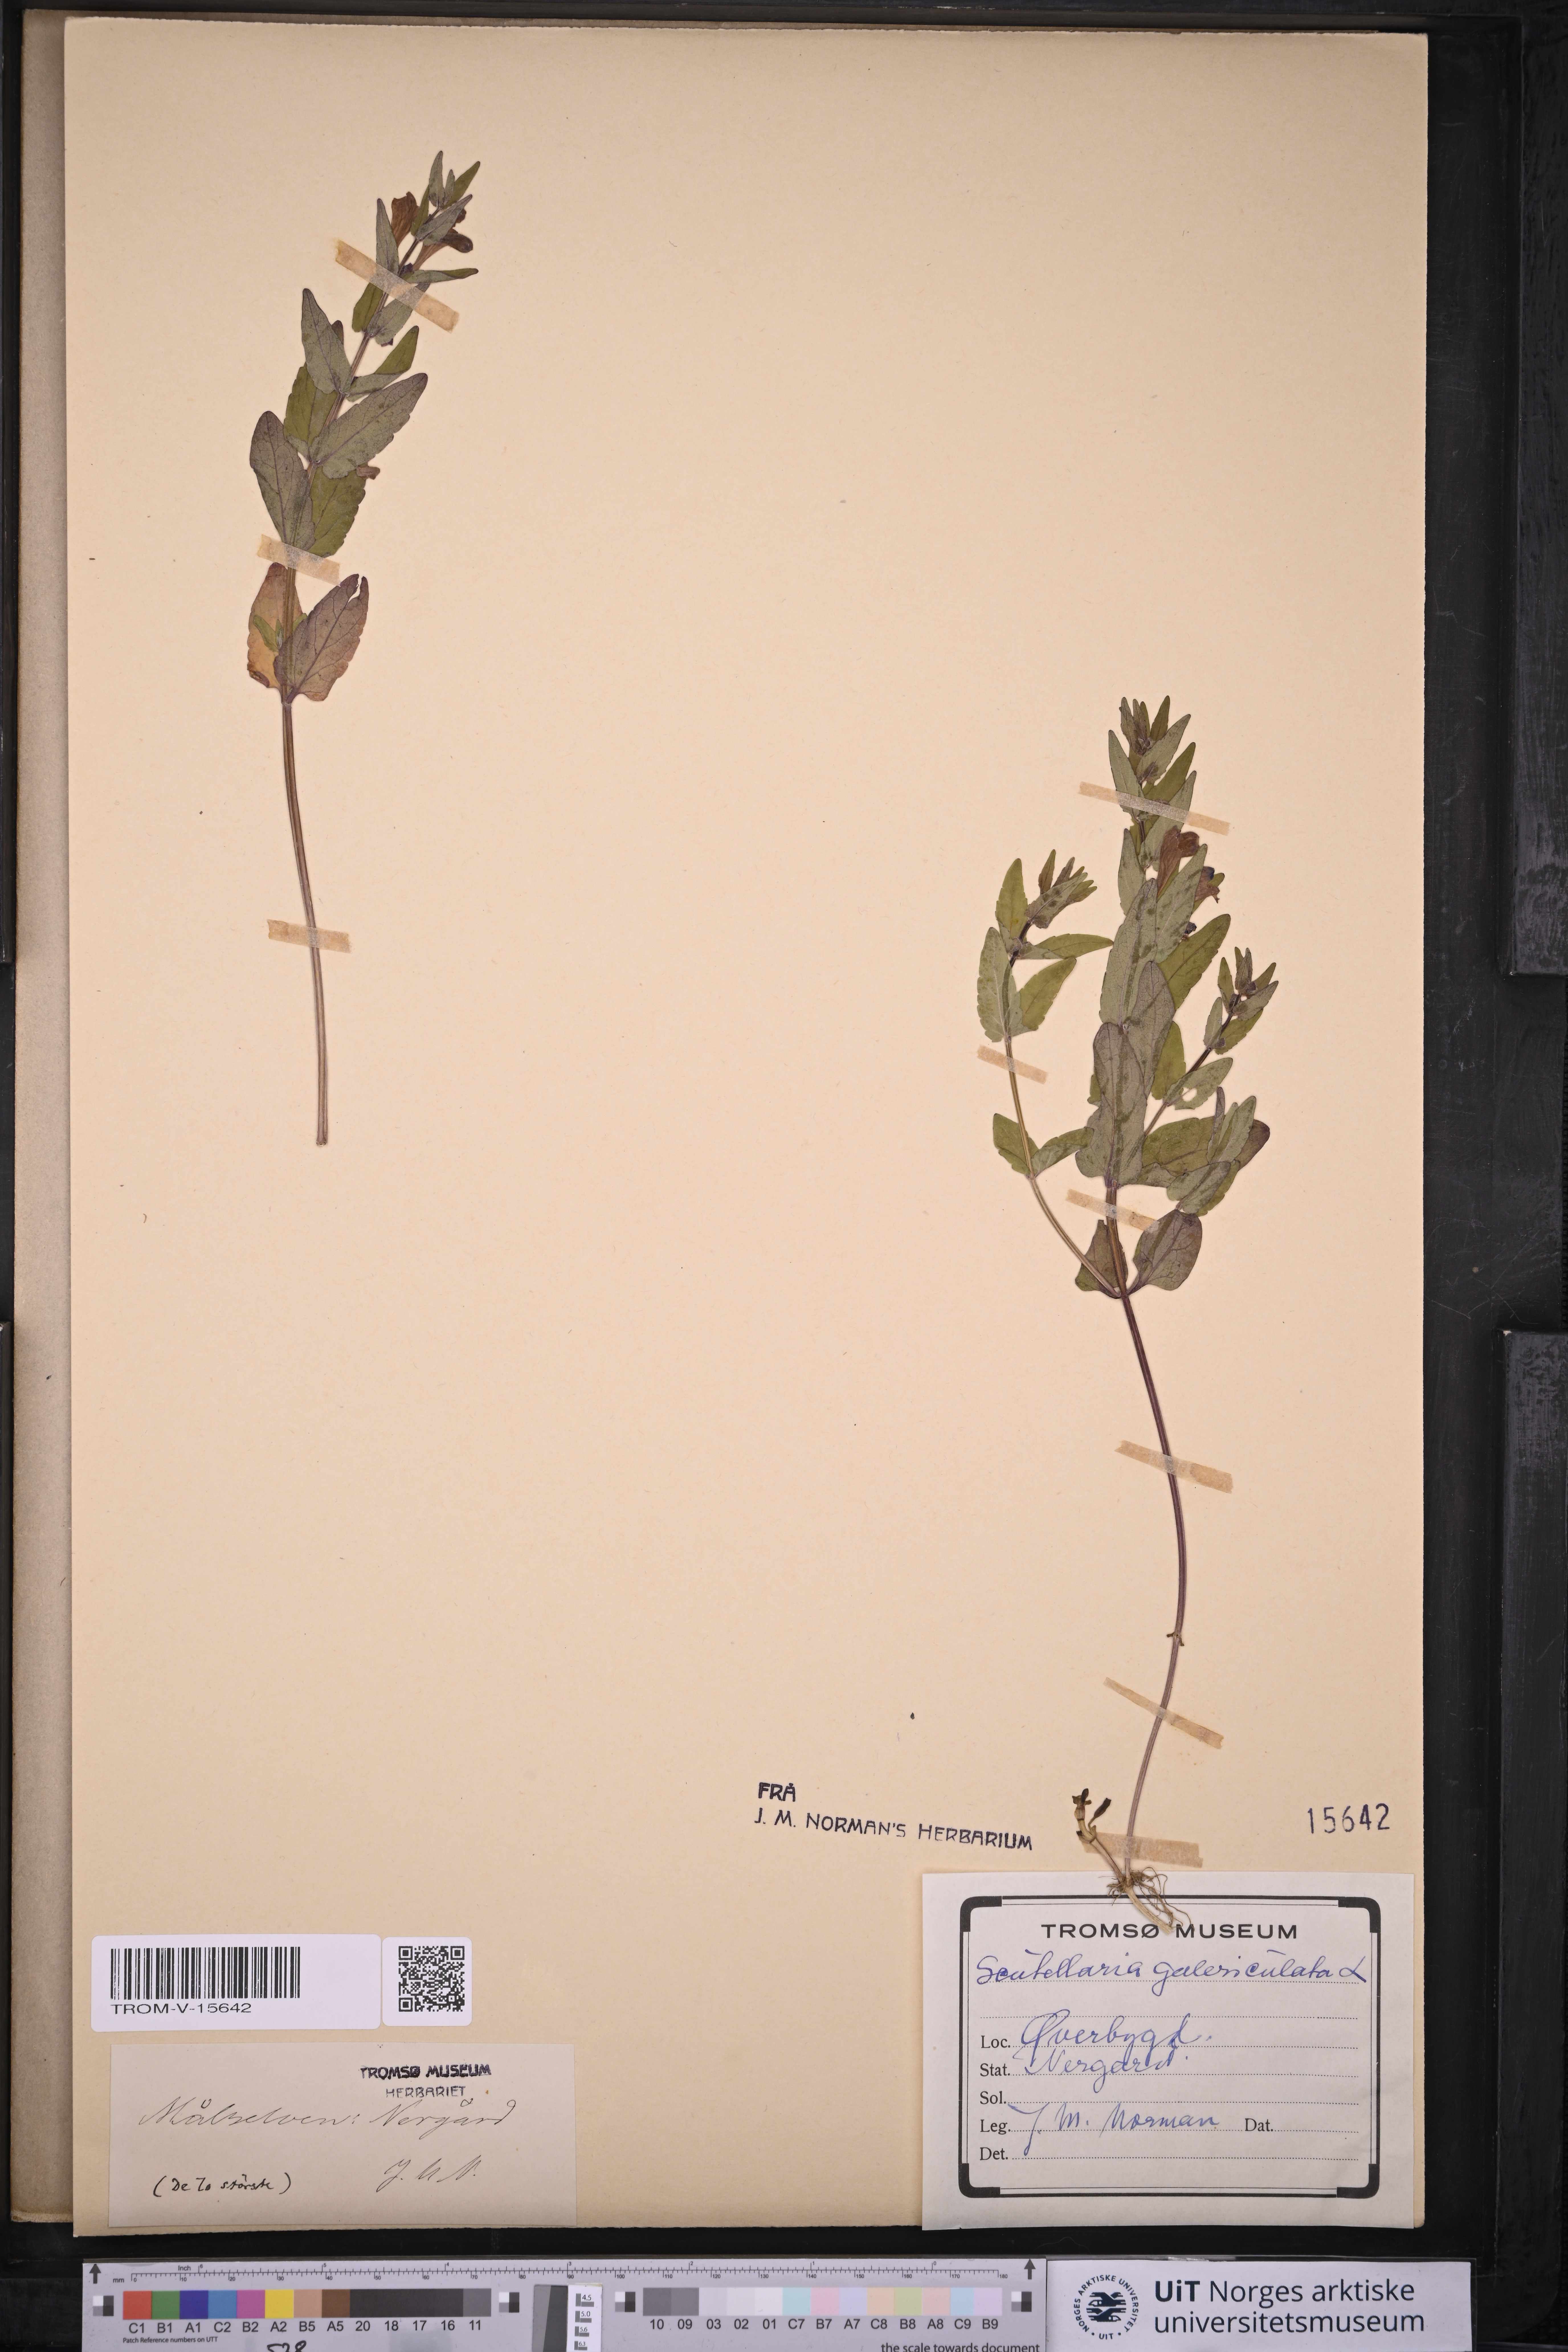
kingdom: Plantae
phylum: Tracheophyta
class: Magnoliopsida
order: Lamiales
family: Lamiaceae
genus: Scutellaria
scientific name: Scutellaria galericulata
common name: Skullcap
